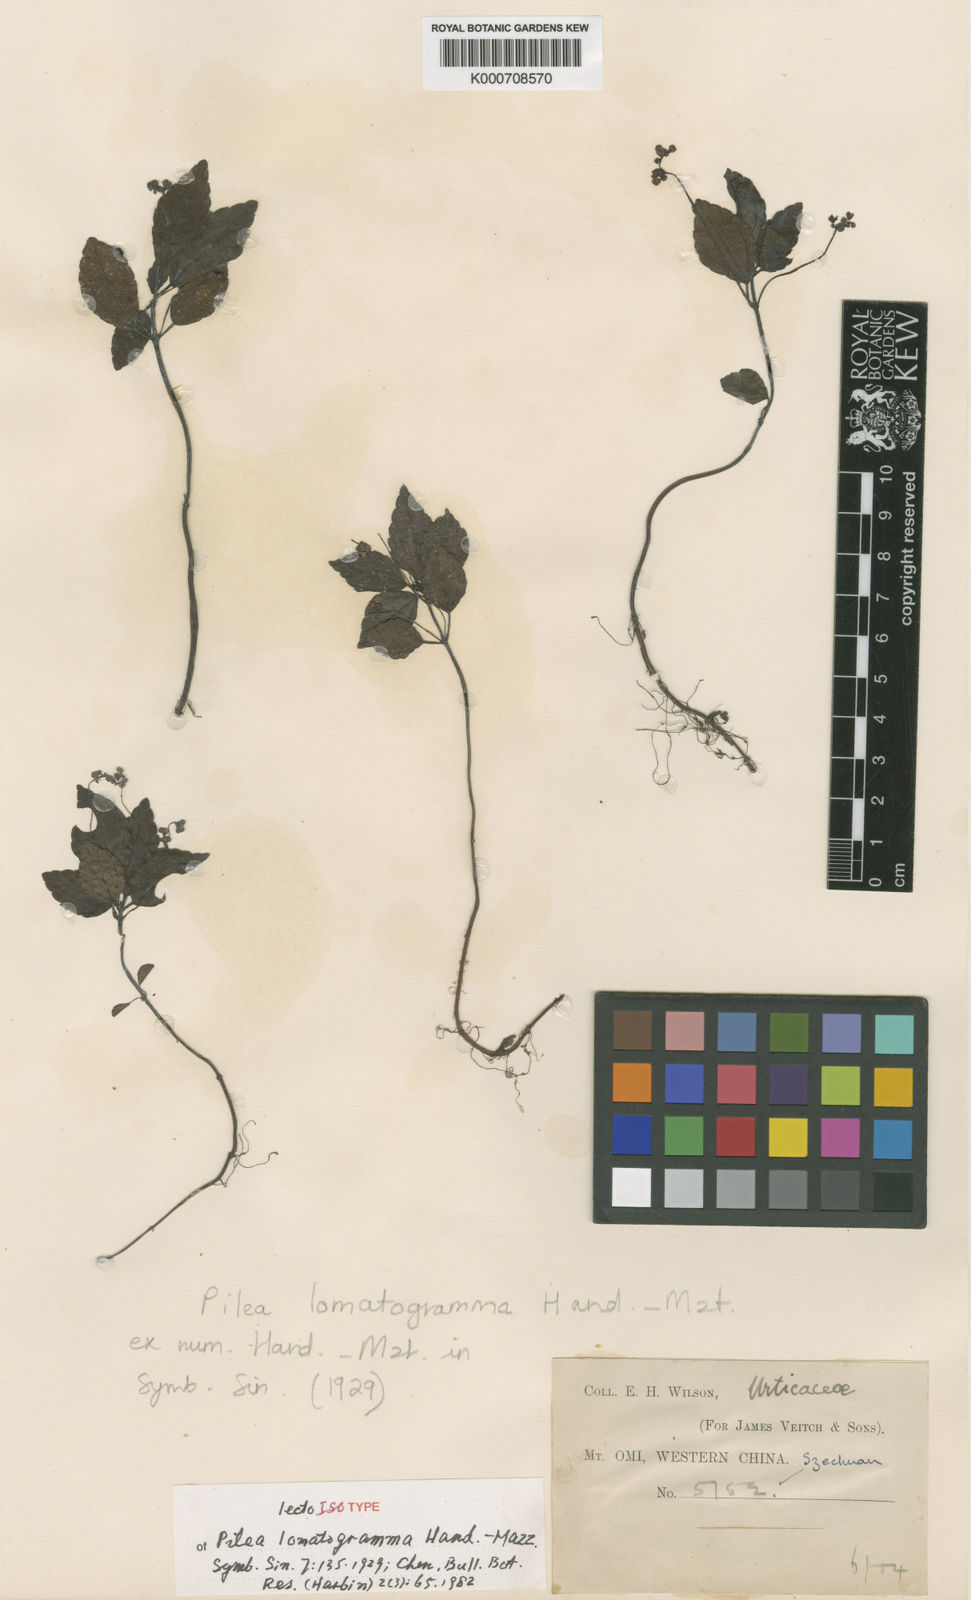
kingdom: Plantae
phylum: Tracheophyta
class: Magnoliopsida
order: Rosales
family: Urticaceae
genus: Pilea
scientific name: Pilea lomatogramma
